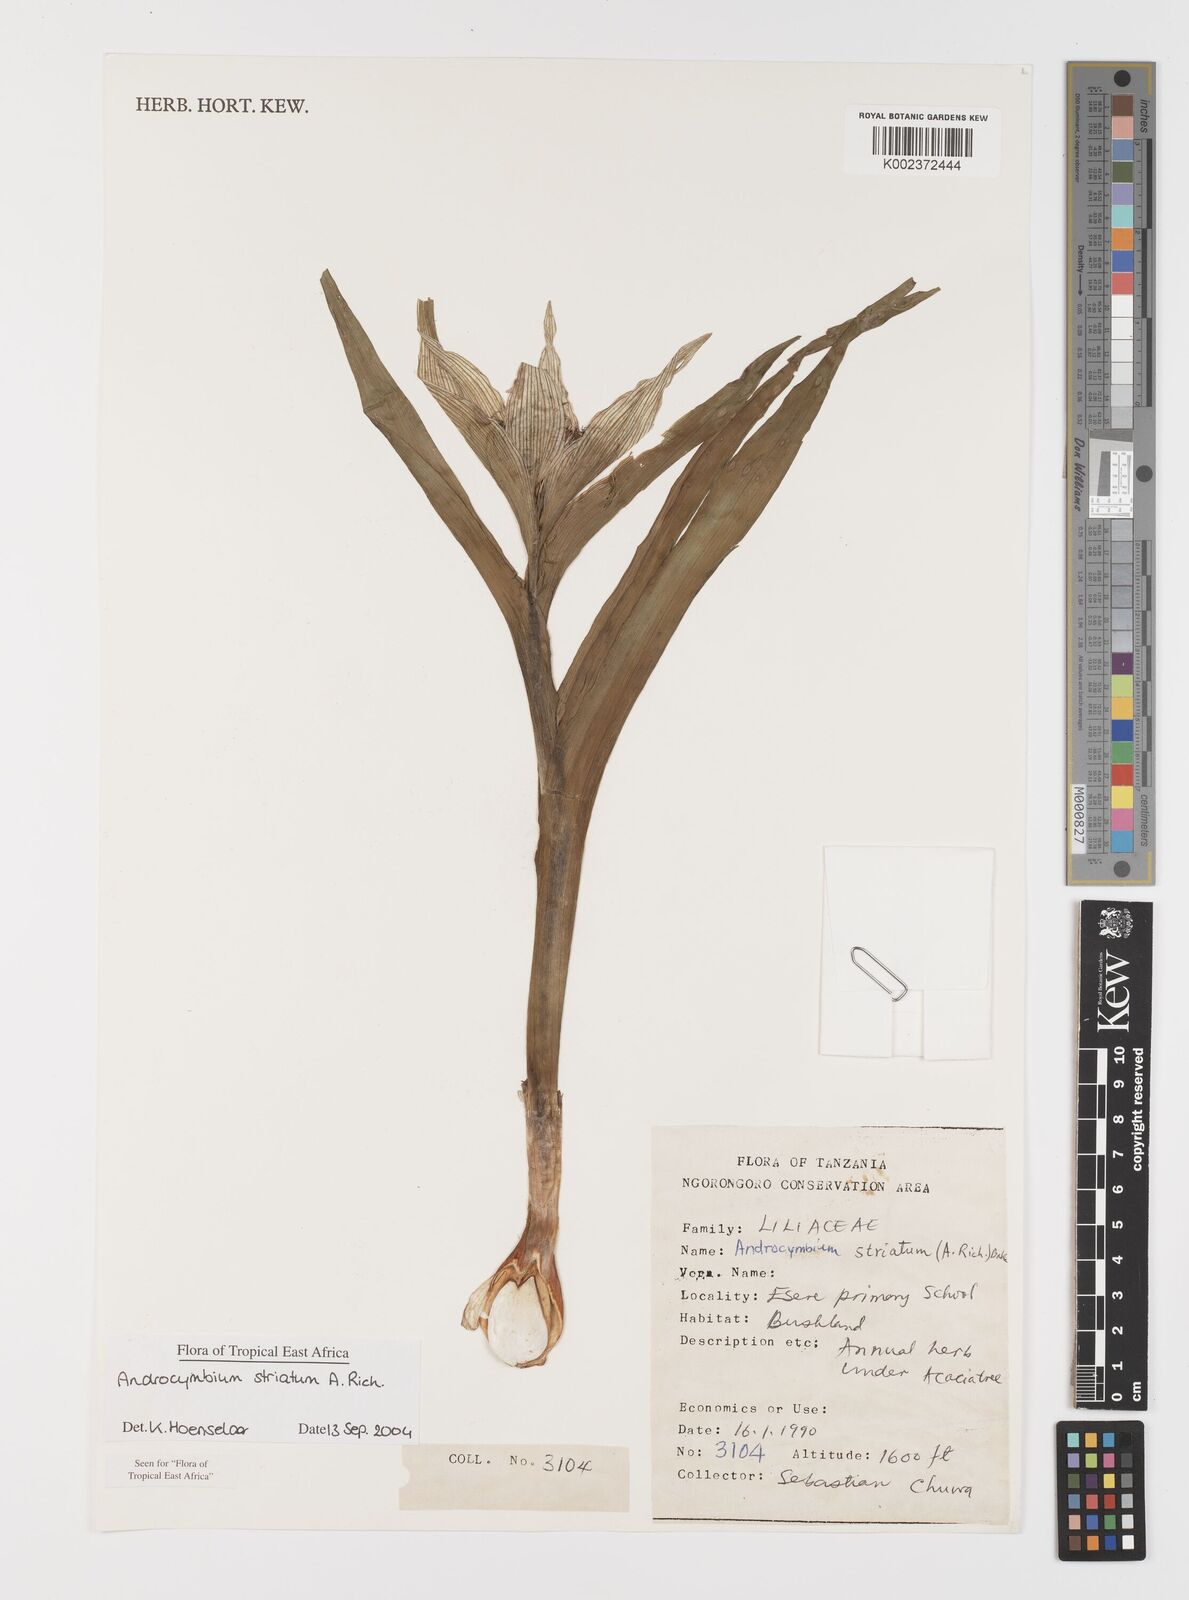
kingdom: Plantae
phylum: Tracheophyta
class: Liliopsida
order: Liliales
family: Colchicaceae
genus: Colchicum
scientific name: Colchicum striatum
